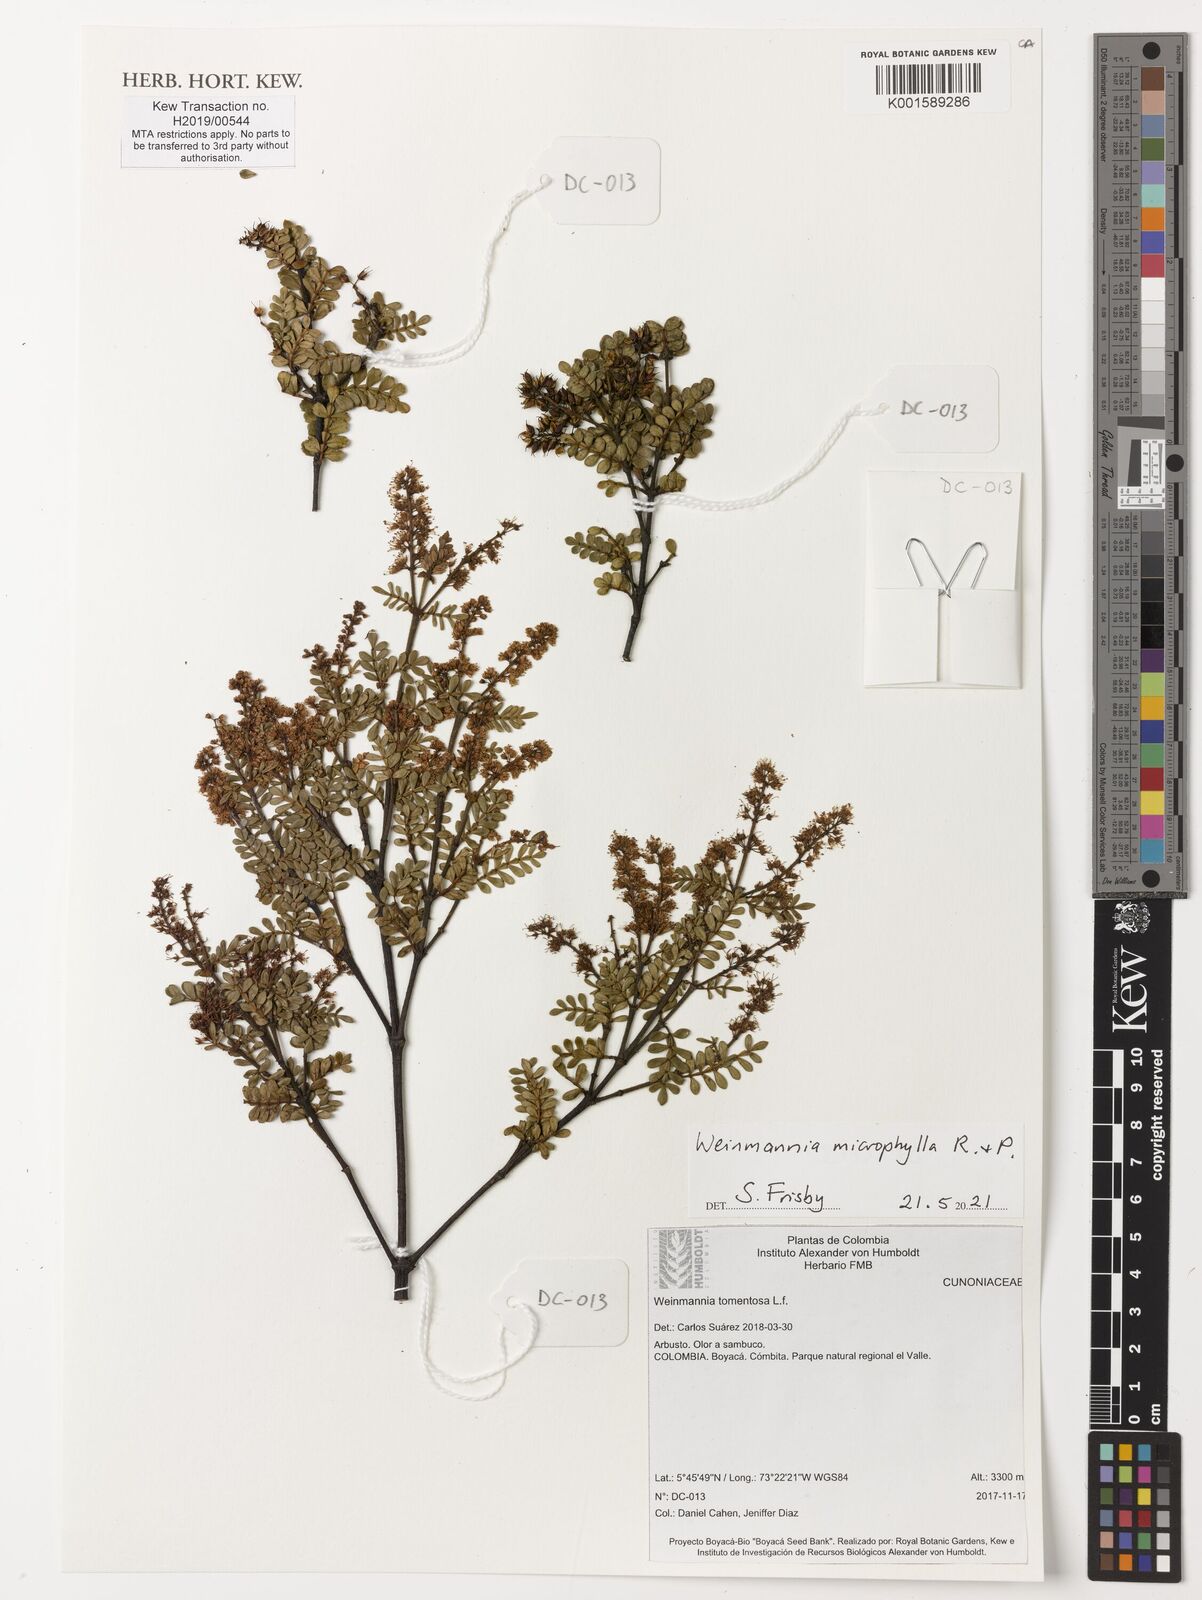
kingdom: Plantae
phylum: Tracheophyta
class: Magnoliopsida
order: Oxalidales
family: Cunoniaceae
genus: Weinmannia
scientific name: Weinmannia microphylla
